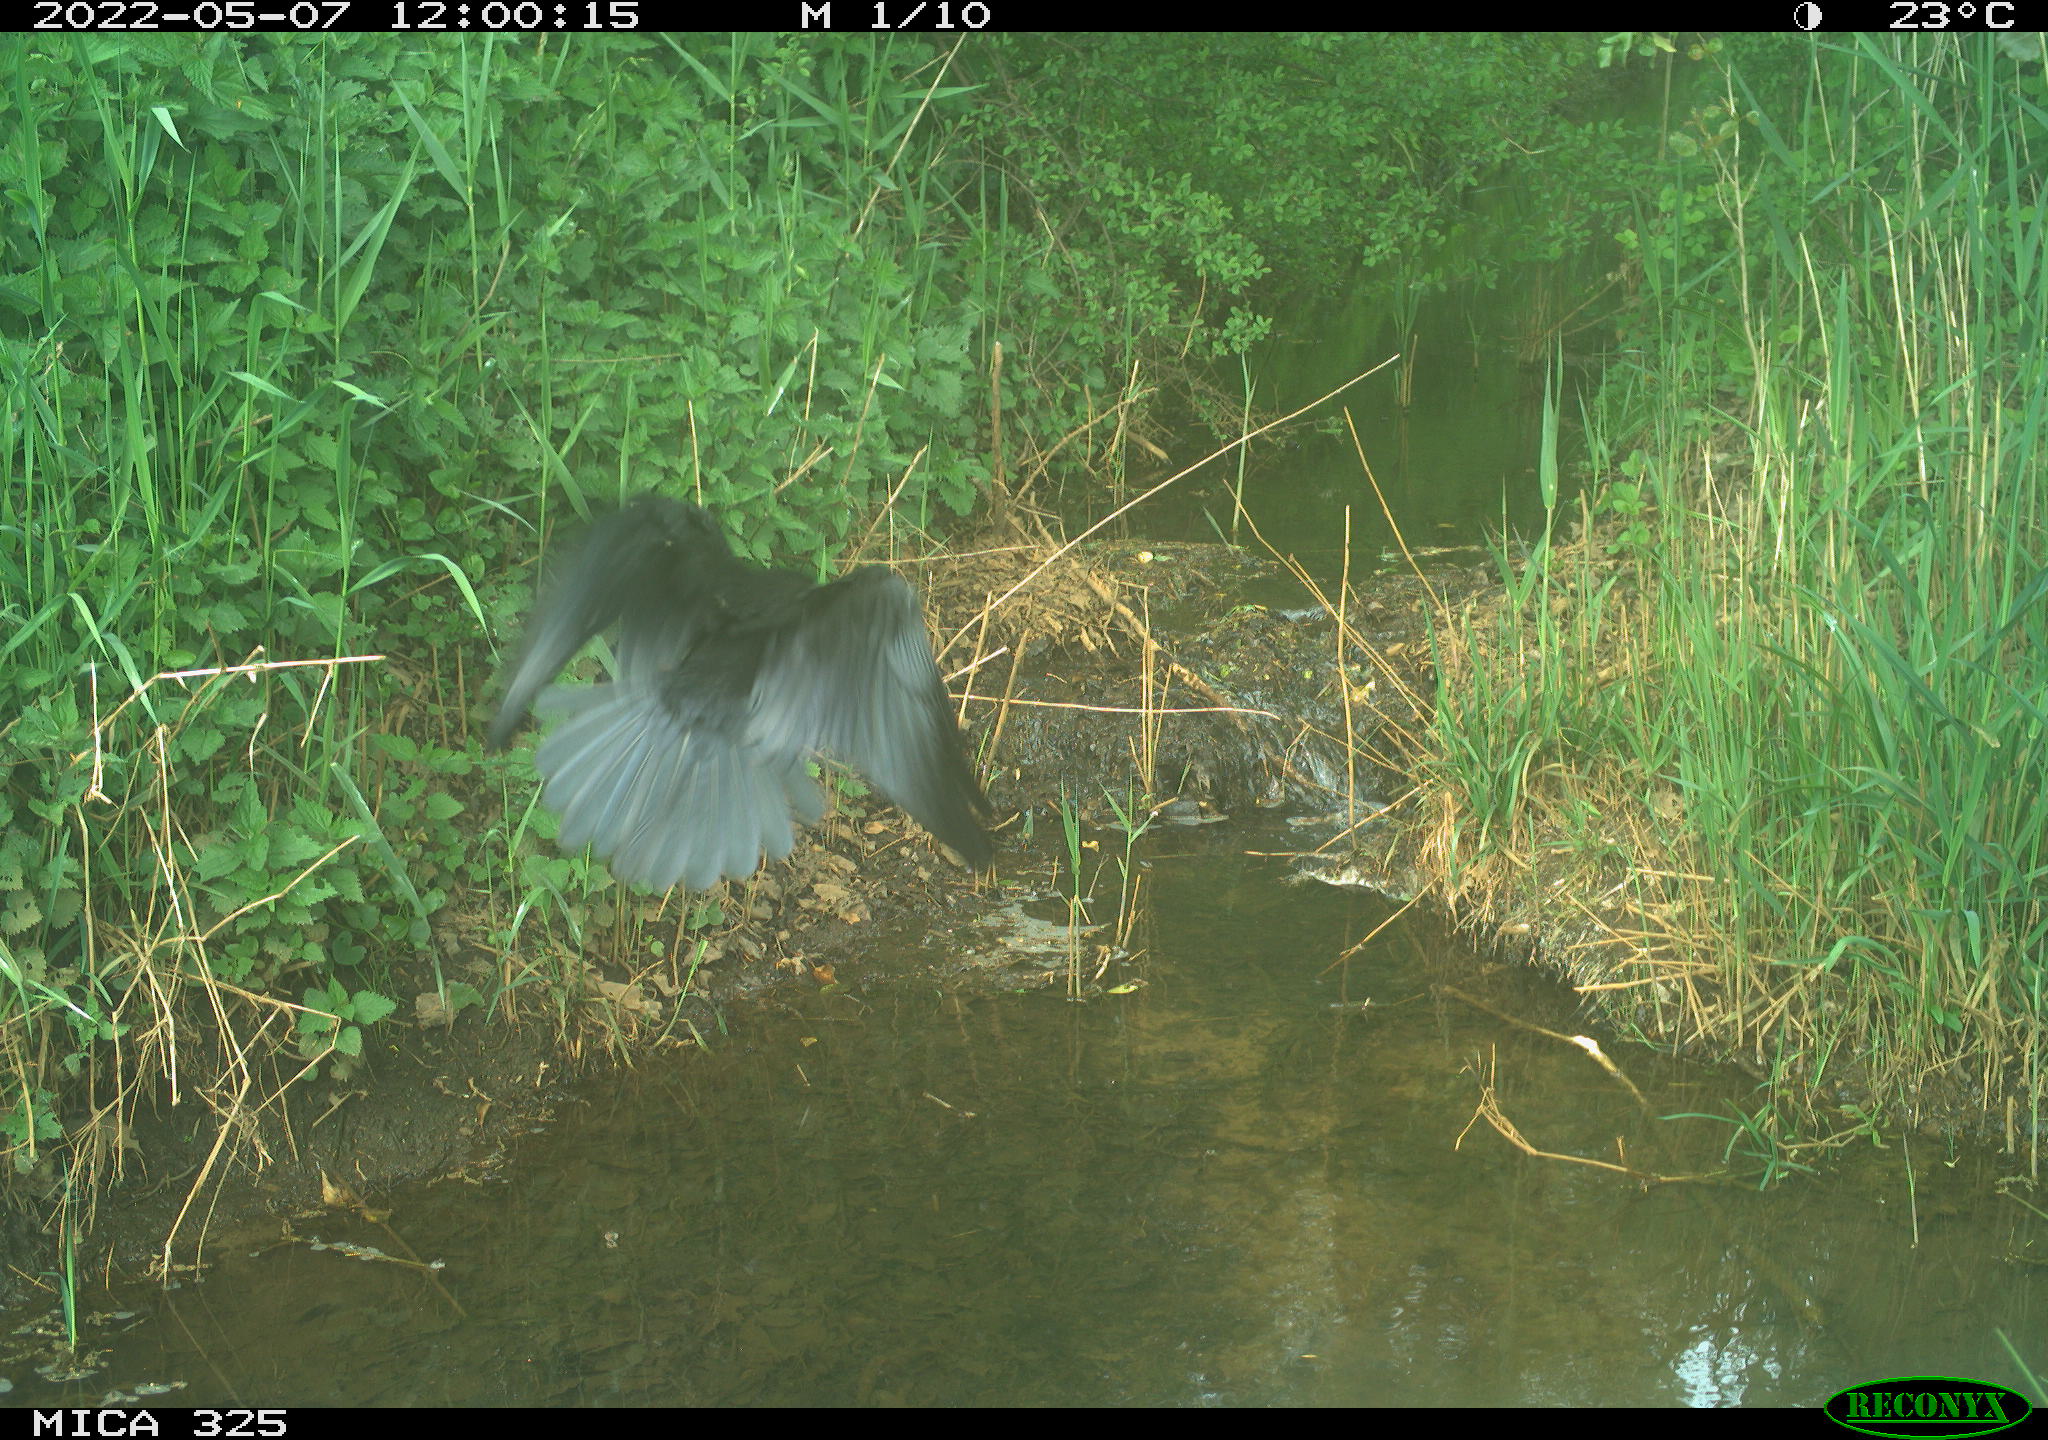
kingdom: Animalia
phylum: Chordata
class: Aves
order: Passeriformes
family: Corvidae
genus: Corvus
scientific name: Corvus corone
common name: Carrion crow
